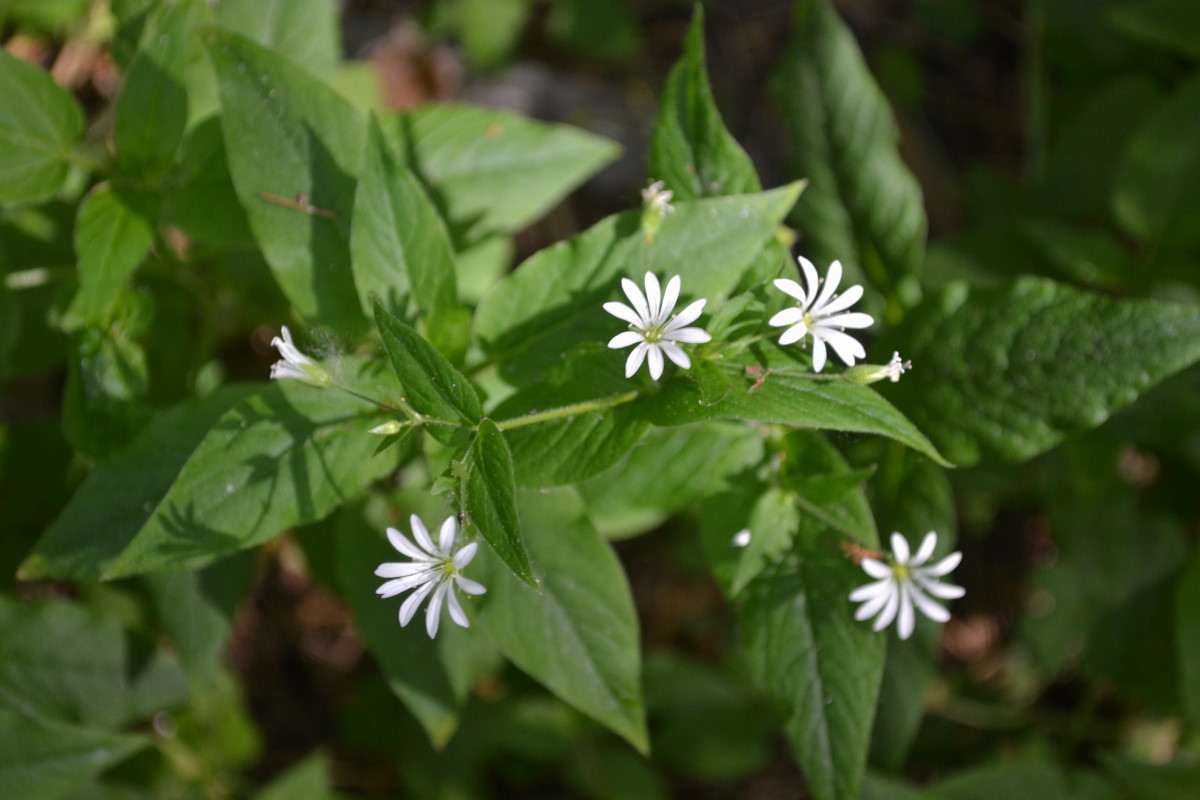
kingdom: Plantae
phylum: Tracheophyta
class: Magnoliopsida
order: Caryophyllales
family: Caryophyllaceae
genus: Stellaria
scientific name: Stellaria nemorum
